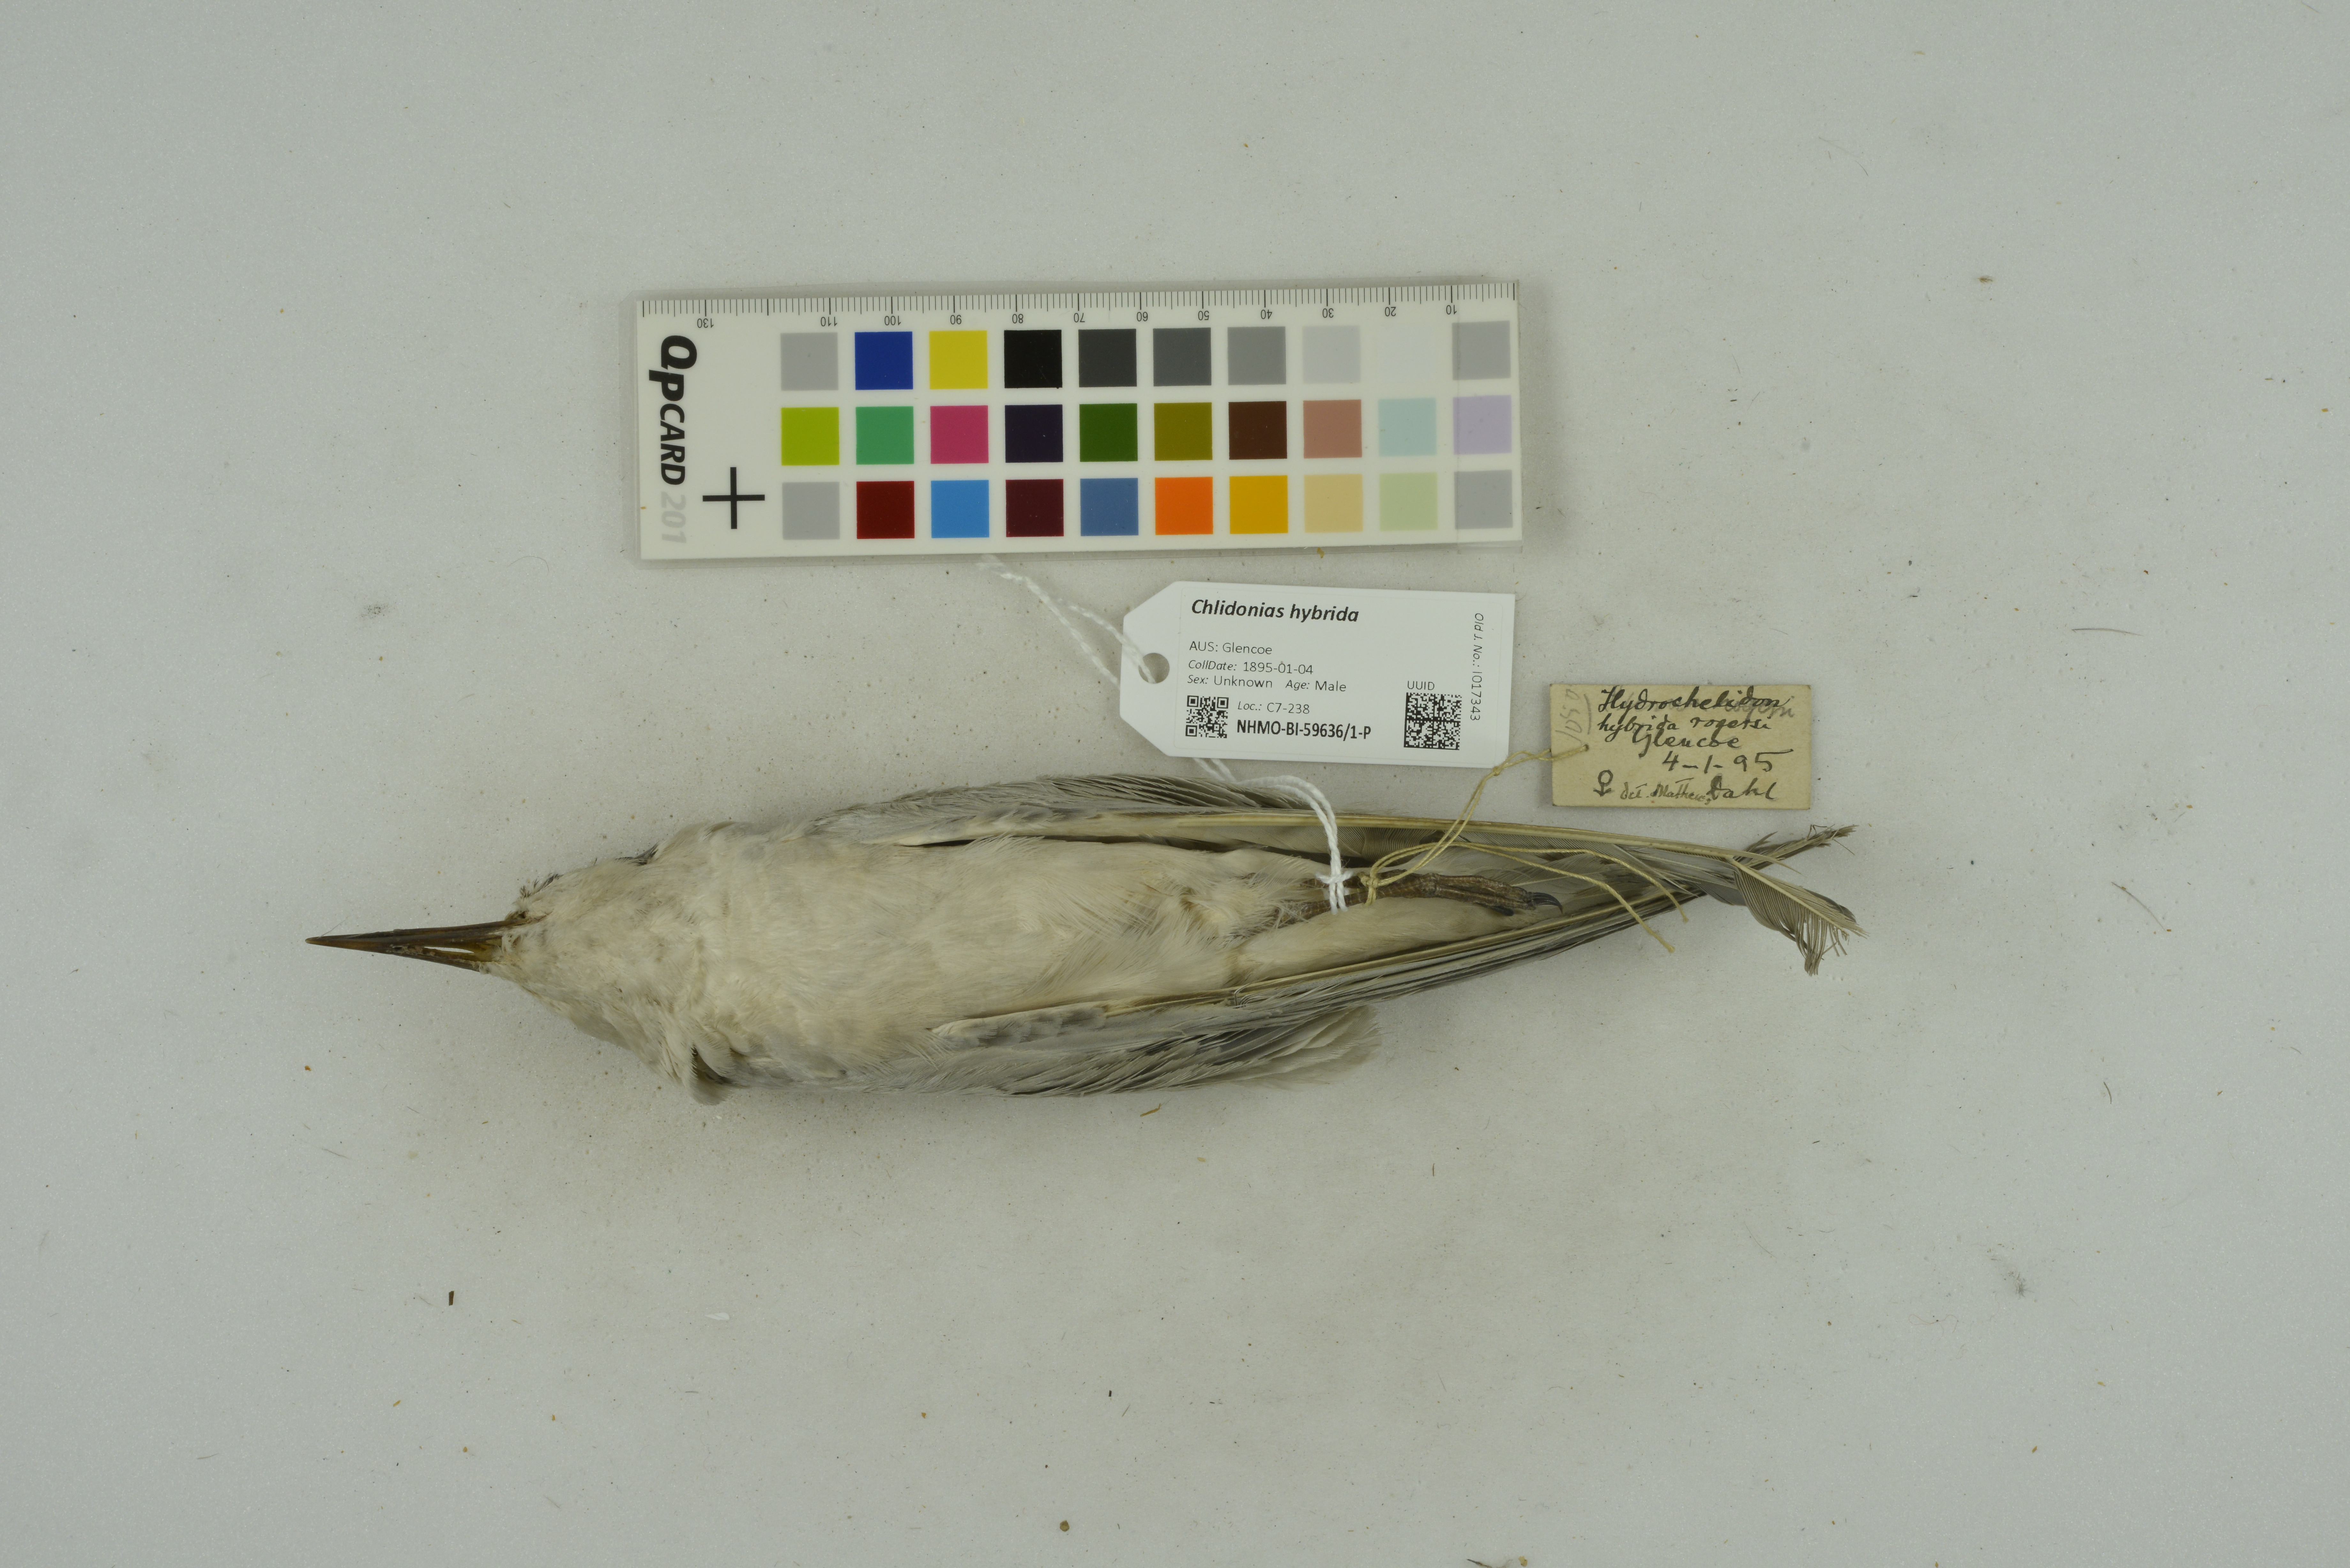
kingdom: Animalia
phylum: Chordata
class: Aves
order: Charadriiformes
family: Laridae
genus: Chlidonias
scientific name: Chlidonias hybrida
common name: Whiskered tern
